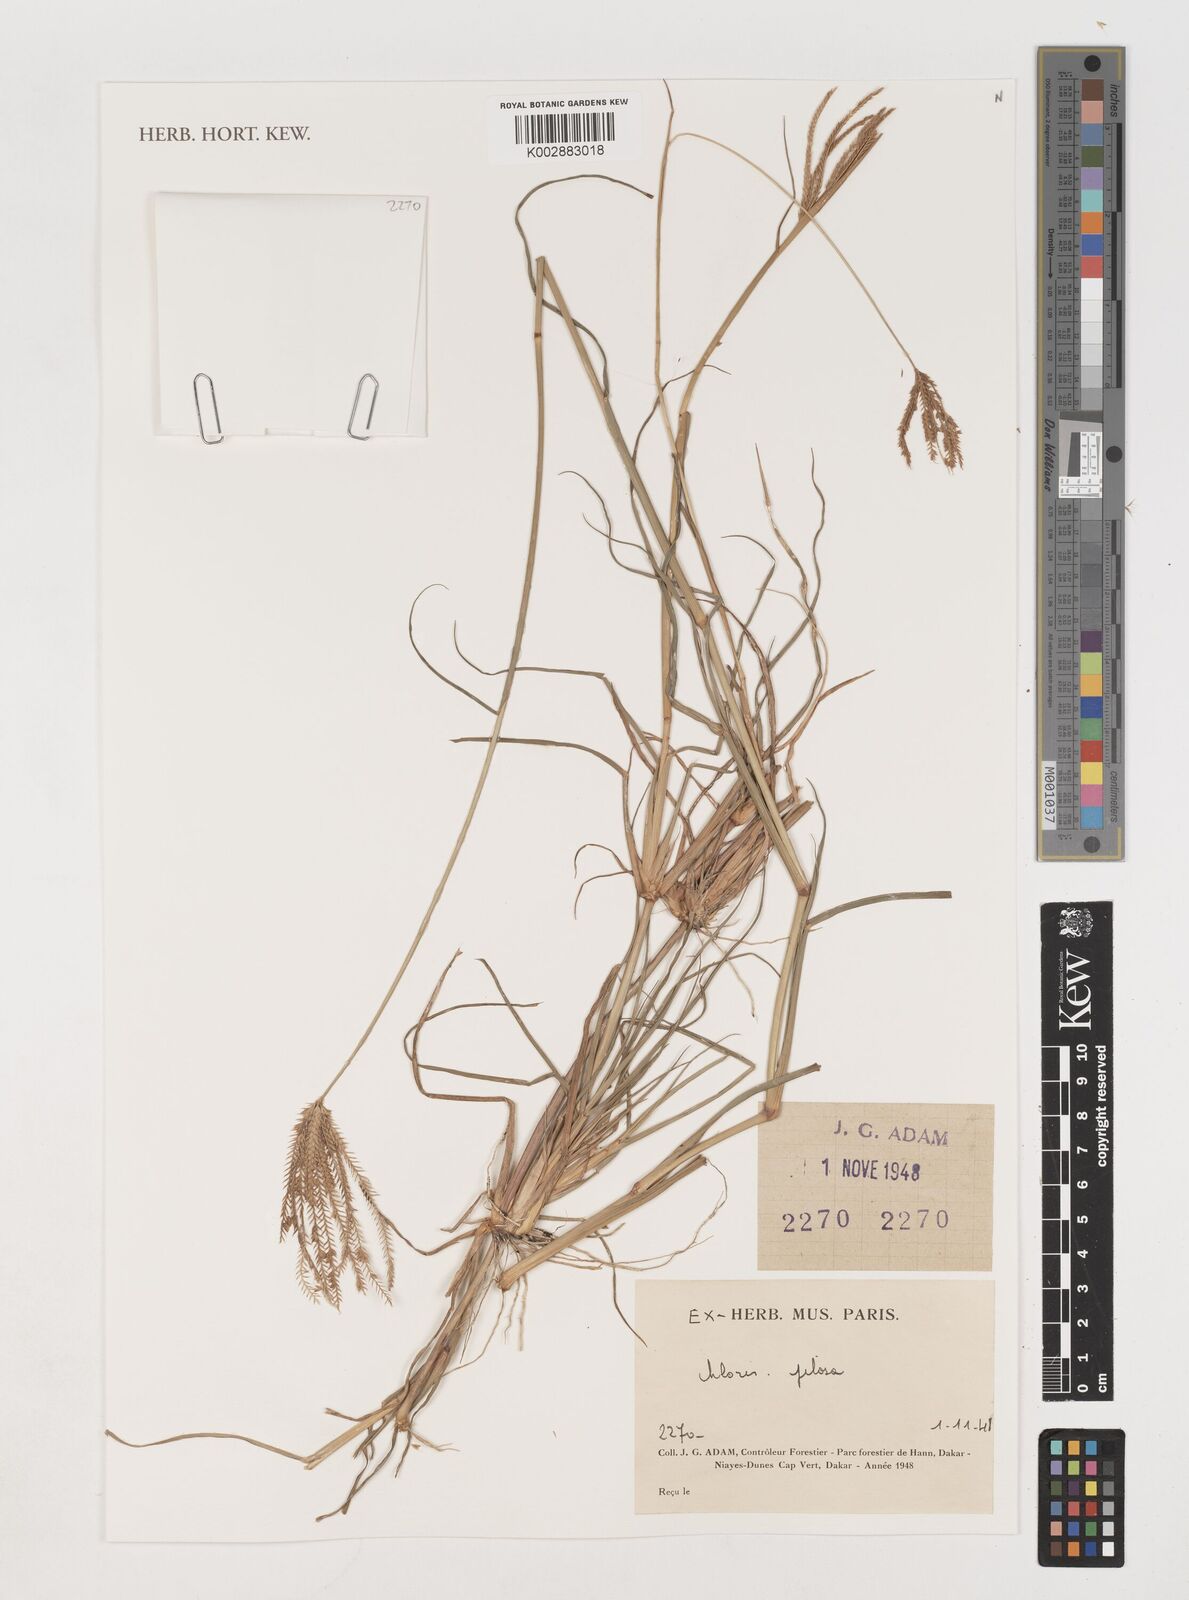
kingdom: Plantae
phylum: Tracheophyta
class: Liliopsida
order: Poales
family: Poaceae
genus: Chloris
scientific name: Chloris pilosa
